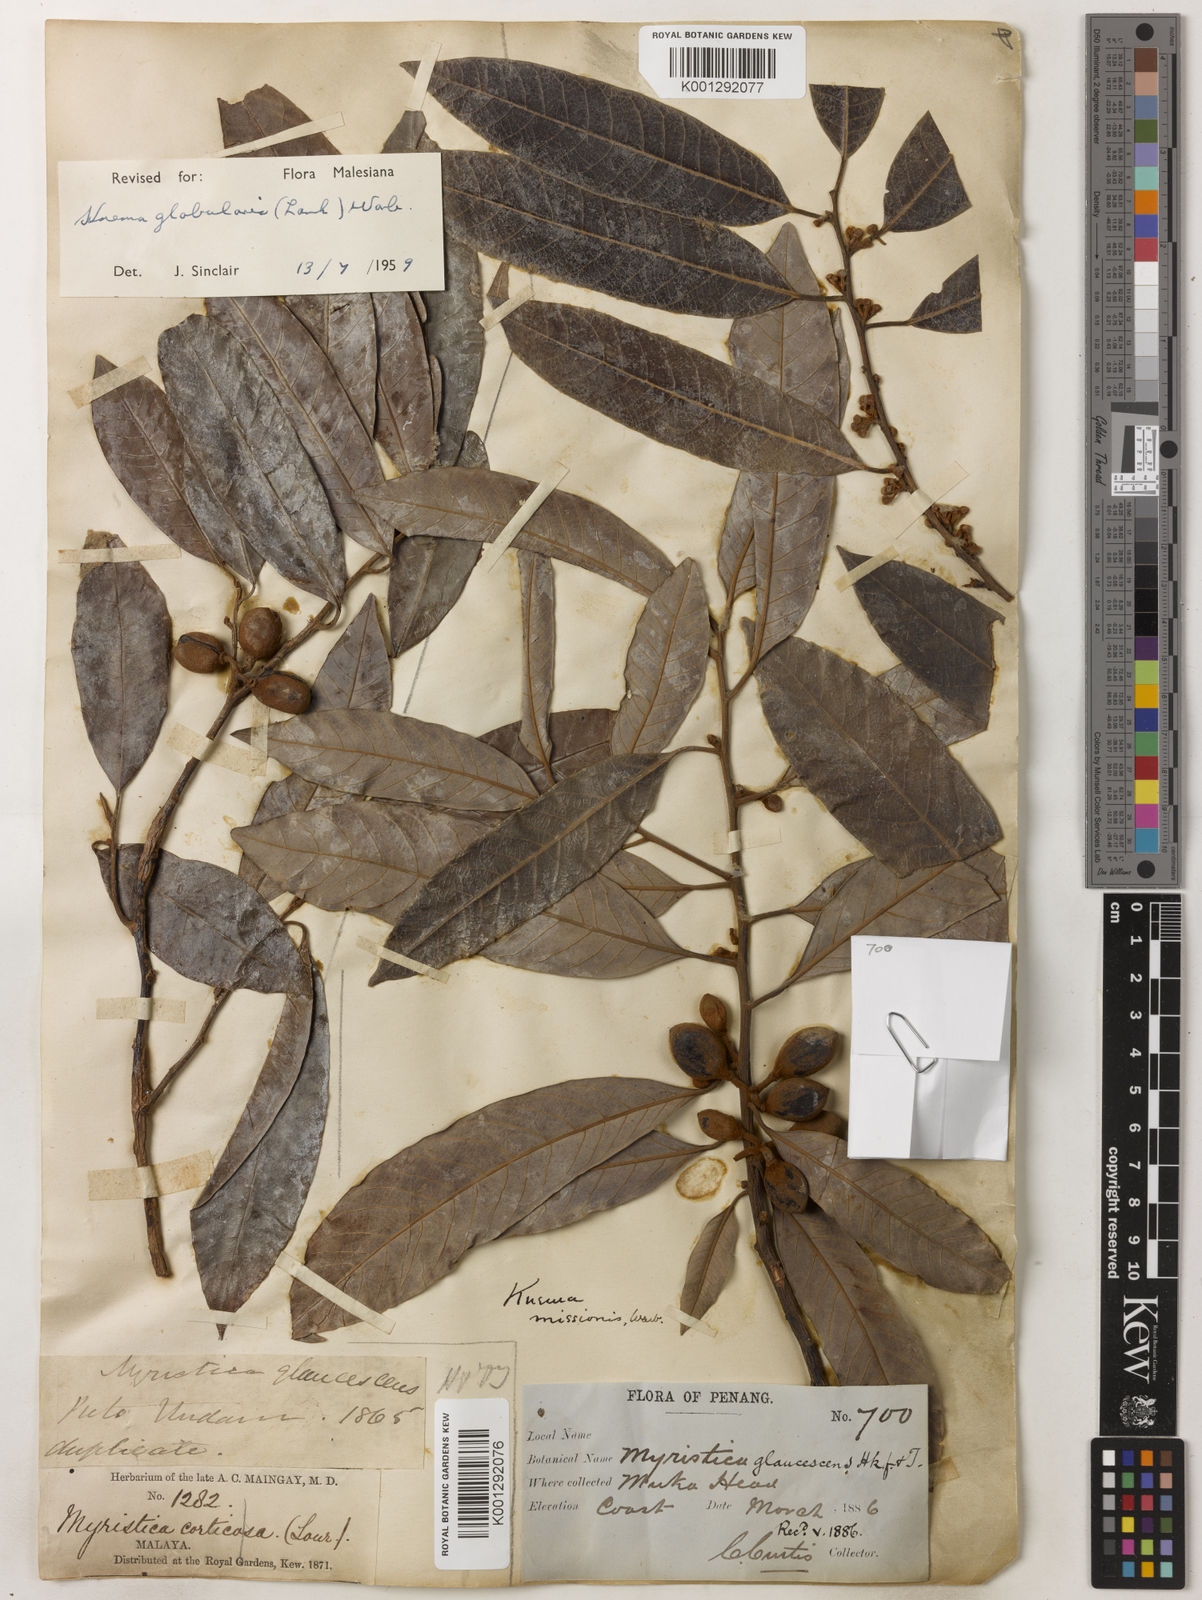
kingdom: Plantae
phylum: Tracheophyta
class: Magnoliopsida
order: Magnoliales
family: Myristicaceae
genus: Knema
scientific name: Knema globularia
